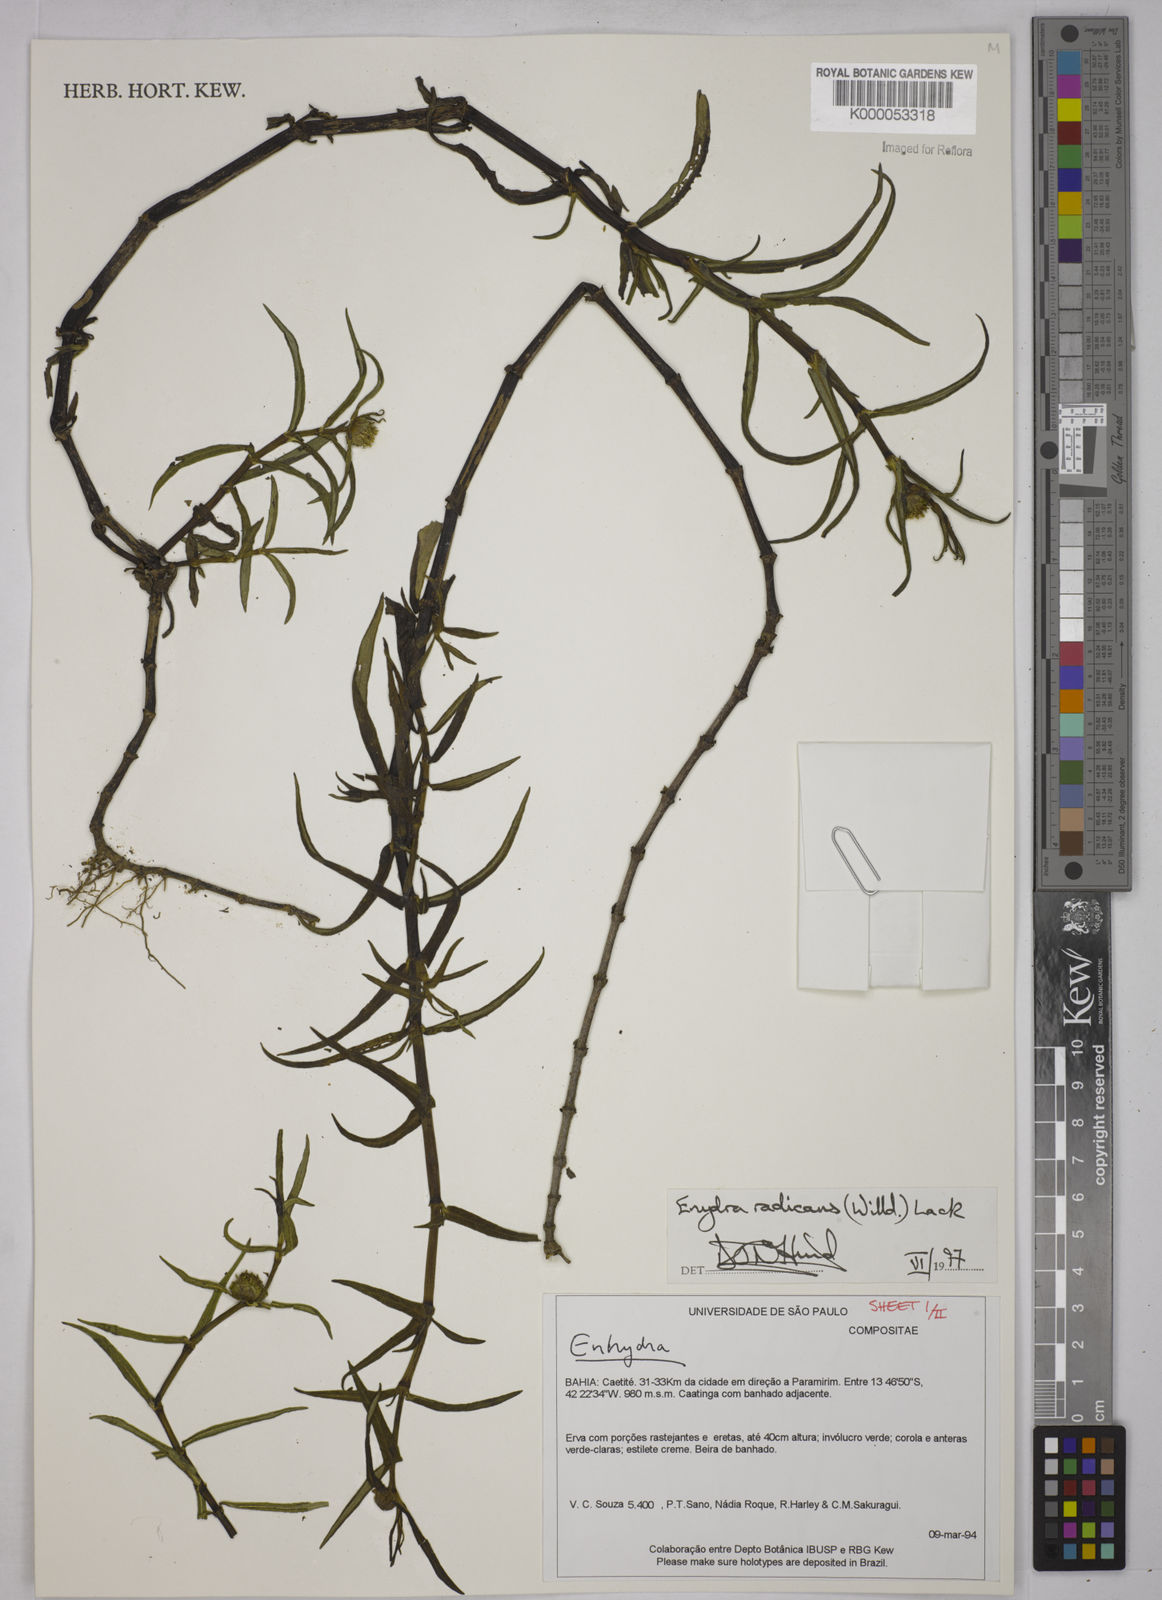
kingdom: Plantae
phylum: Tracheophyta
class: Magnoliopsida
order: Asterales
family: Asteraceae
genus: Enydra
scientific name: Enydra radicans
